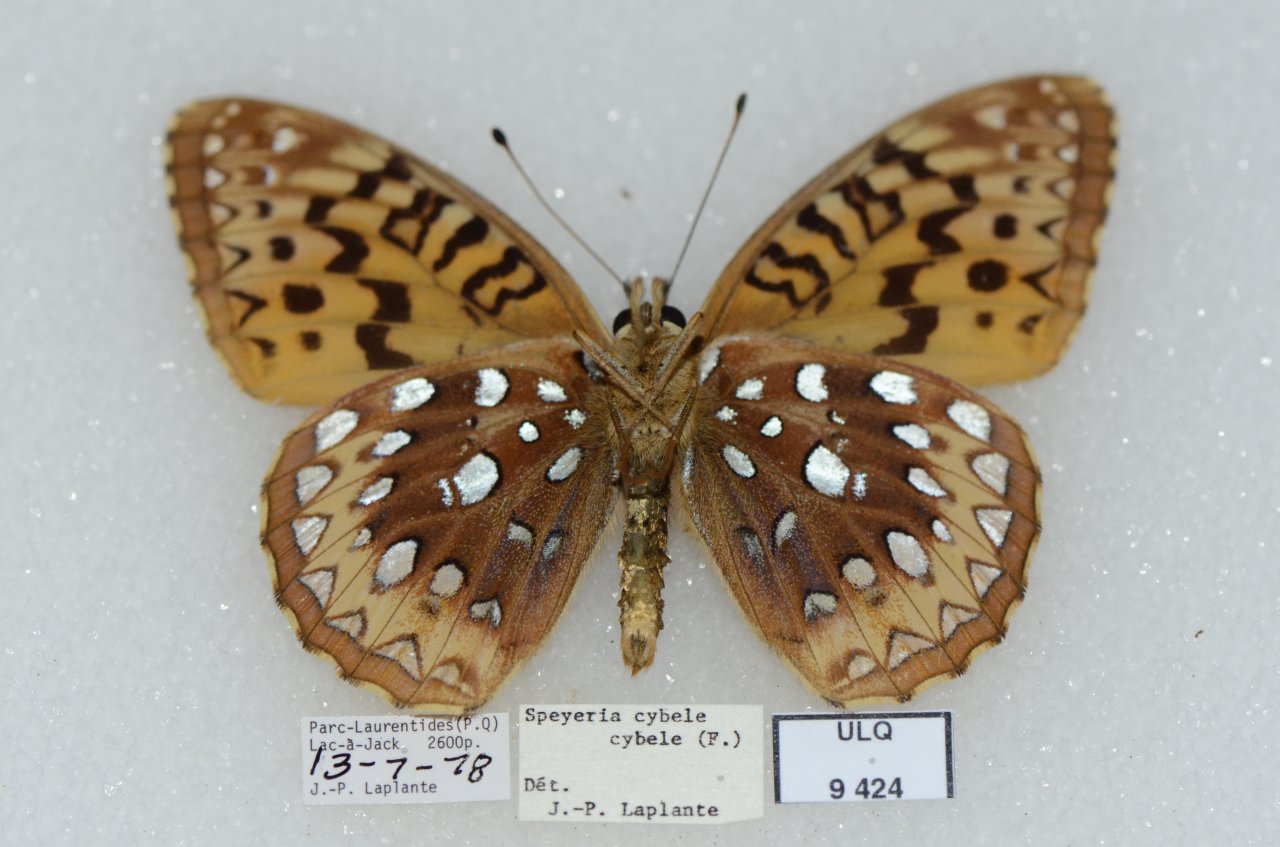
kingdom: Animalia
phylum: Arthropoda
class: Insecta
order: Lepidoptera
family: Nymphalidae
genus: Speyeria
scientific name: Speyeria cybele
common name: Great Spangled Fritillary
